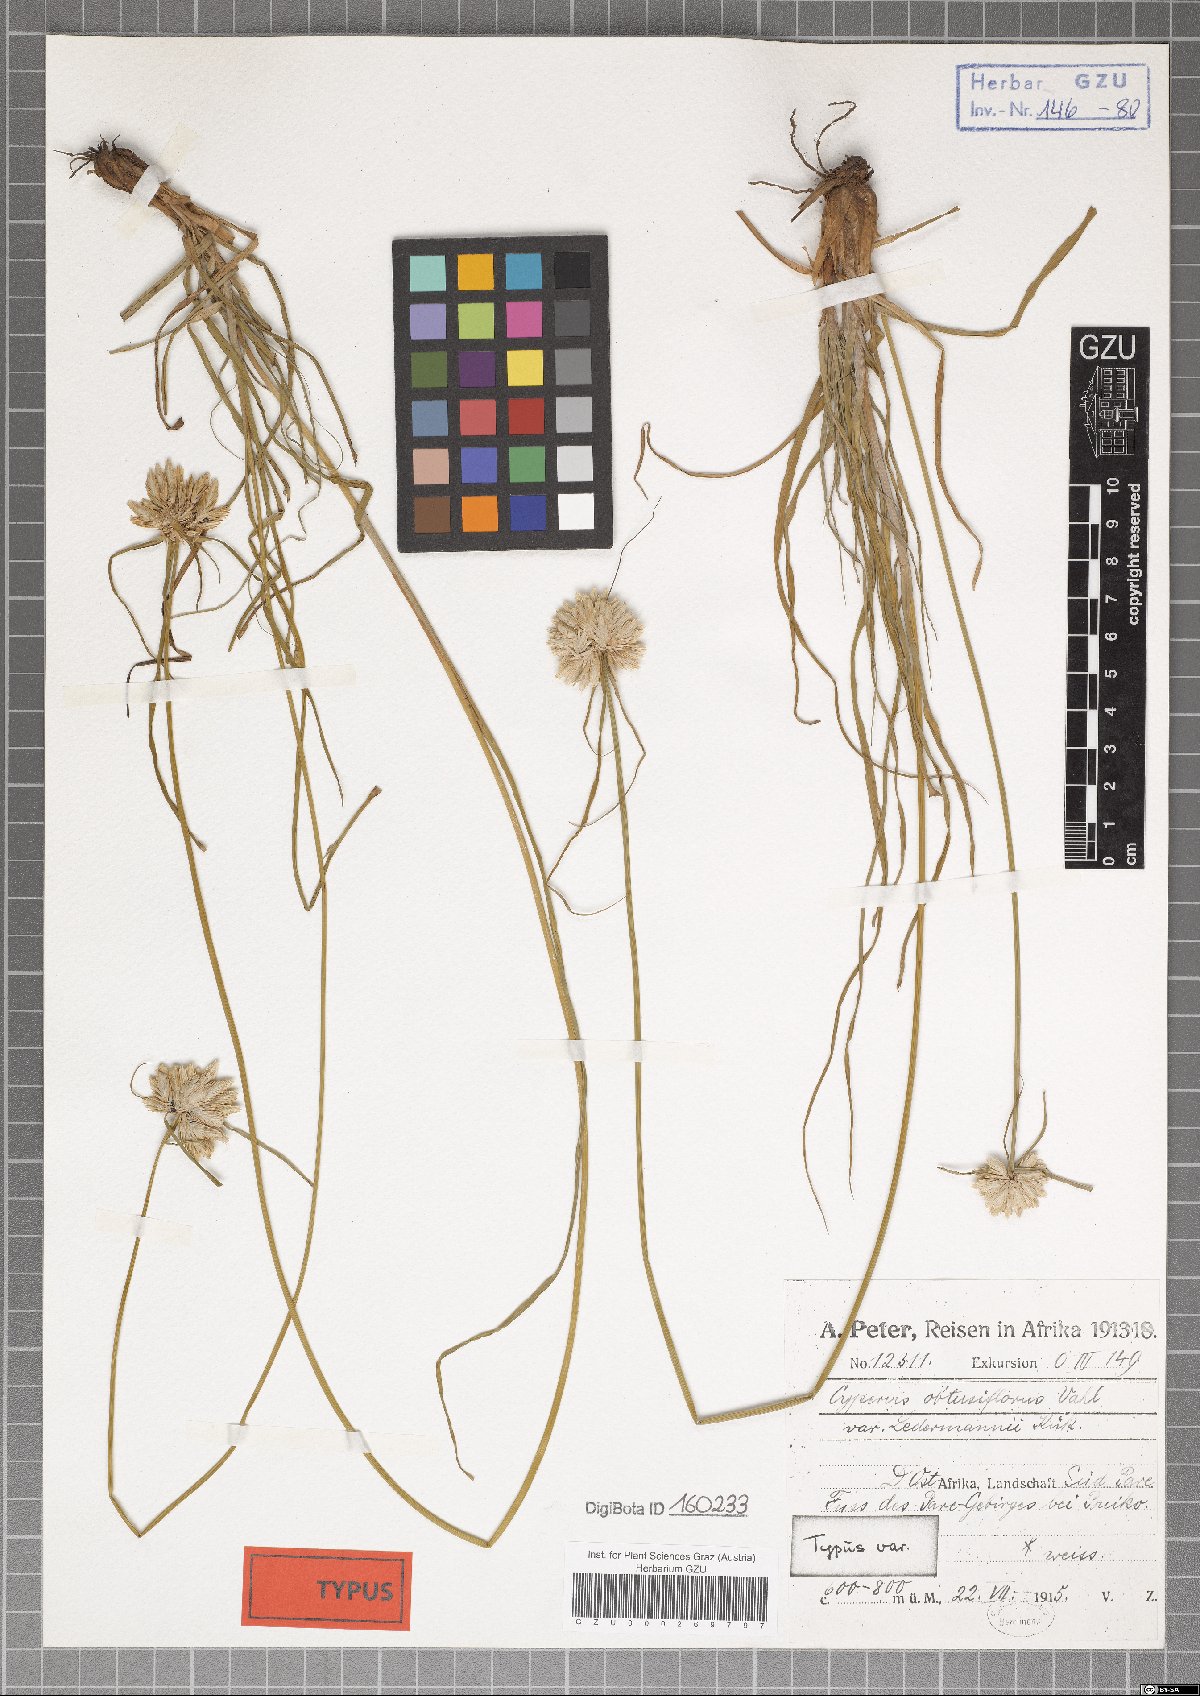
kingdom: Plantae
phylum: Tracheophyta
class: Liliopsida
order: Poales
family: Cyperaceae
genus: Cyperus
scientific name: Cyperus niveus
